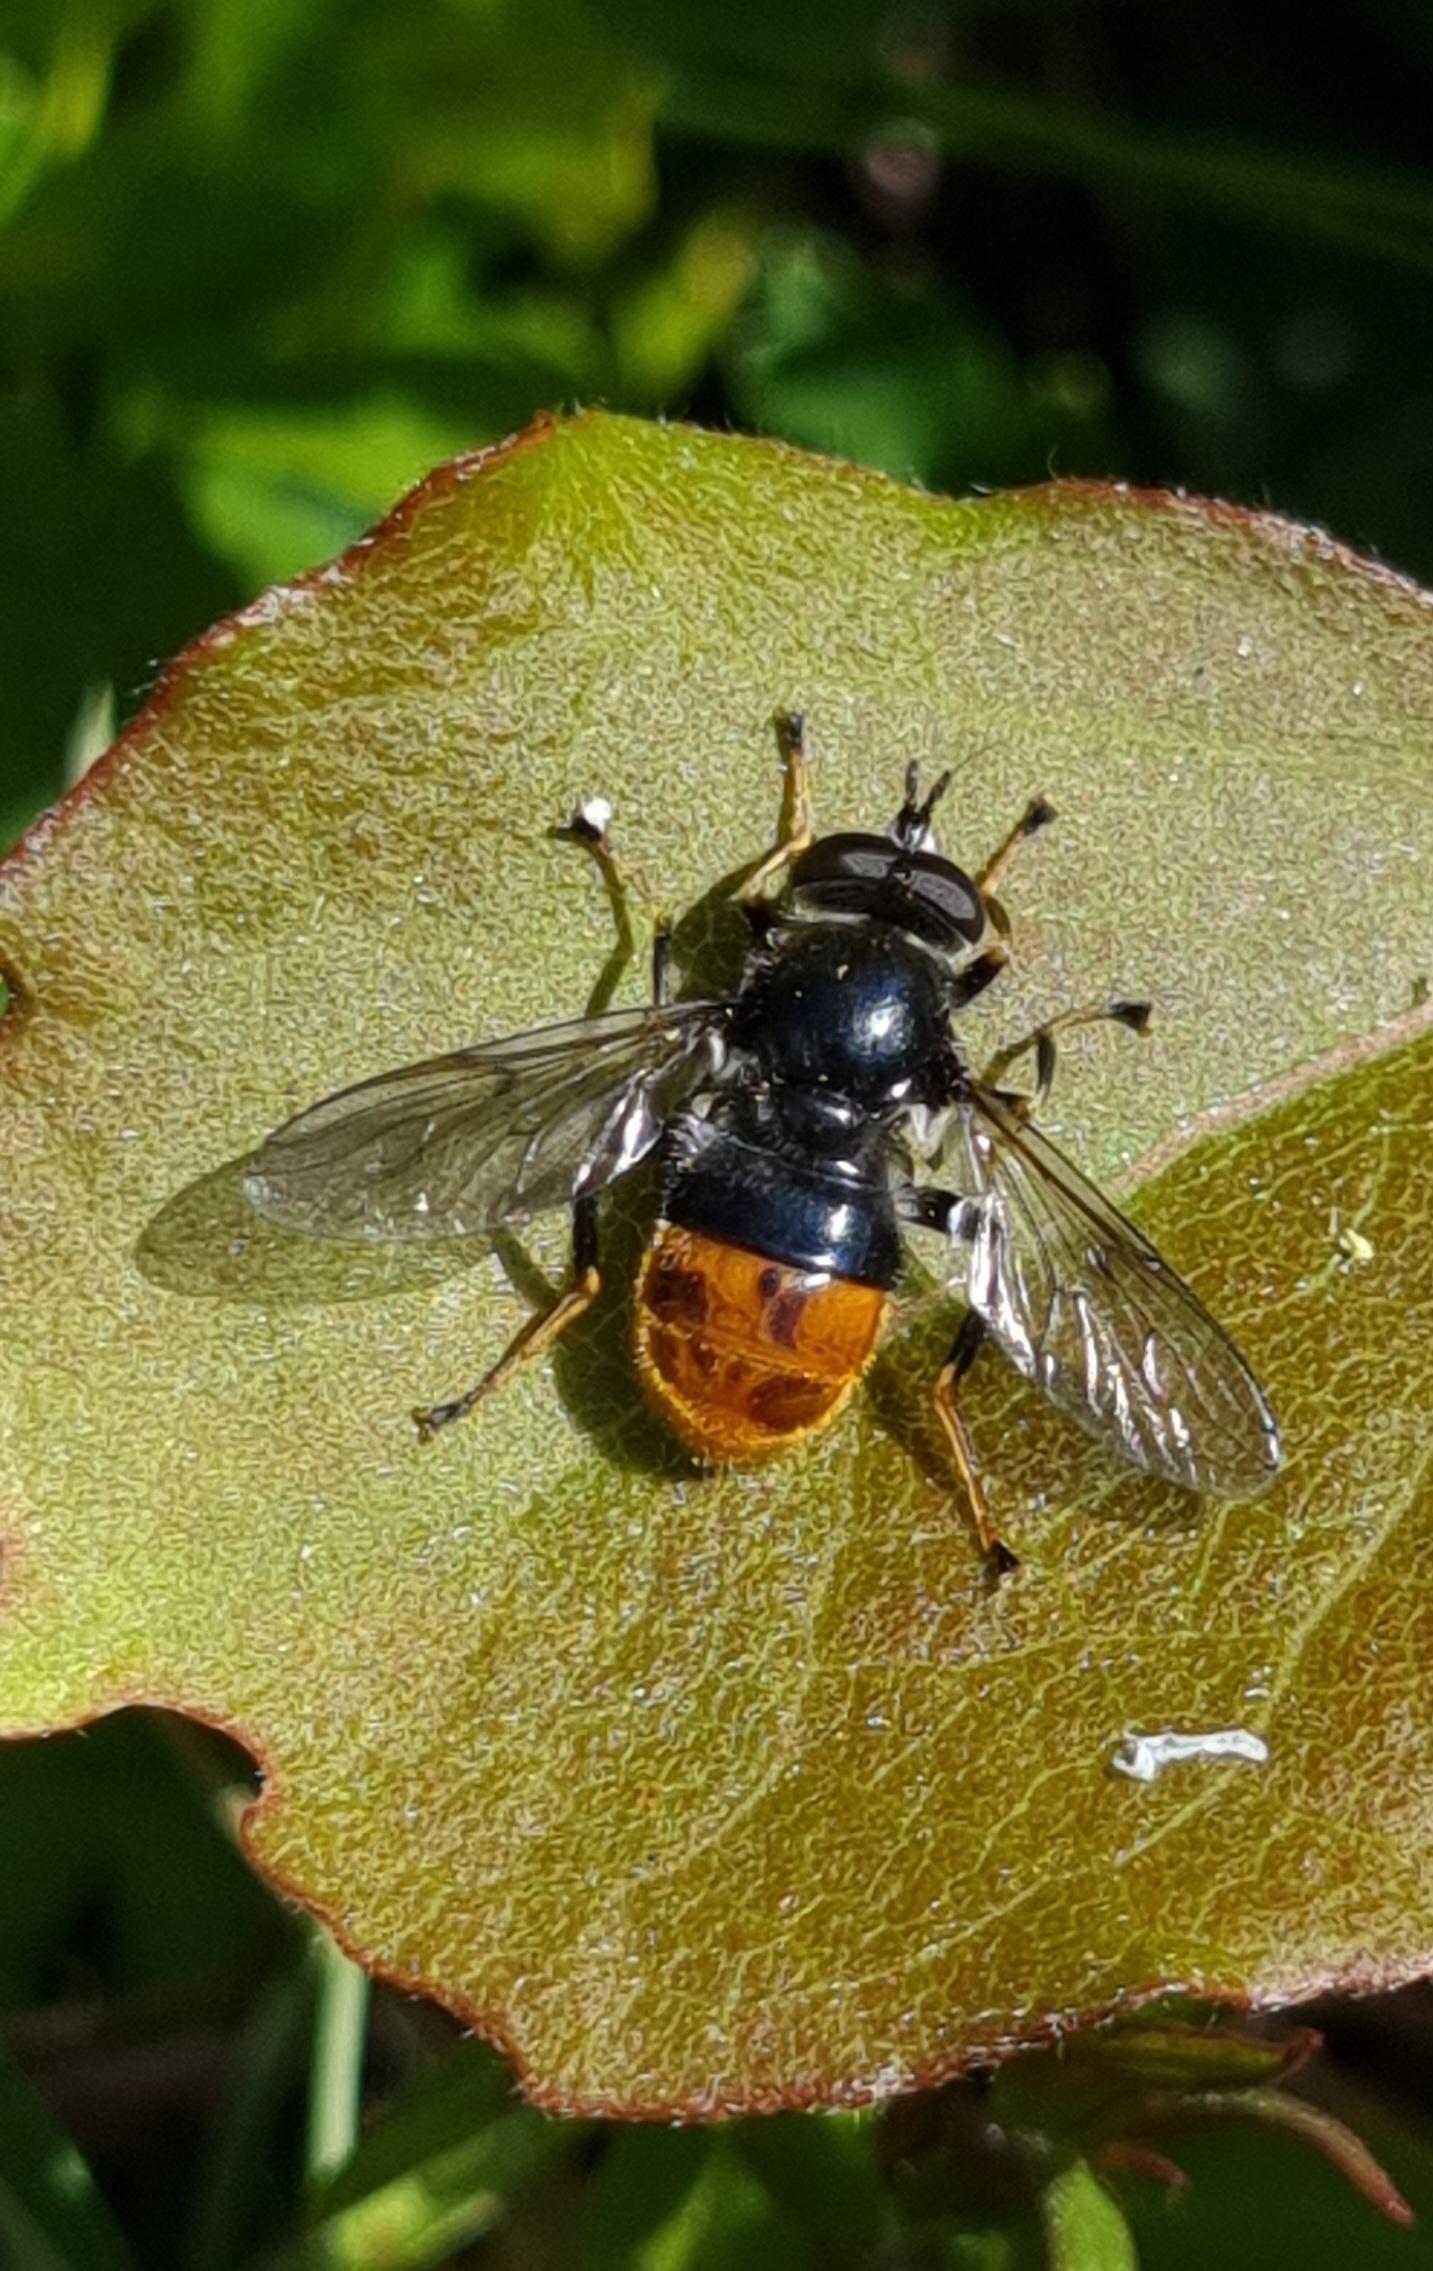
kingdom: Animalia
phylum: Arthropoda
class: Insecta
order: Diptera
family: Syrphidae
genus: Blera
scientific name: Blera fallax
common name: Stub-svirreflue
